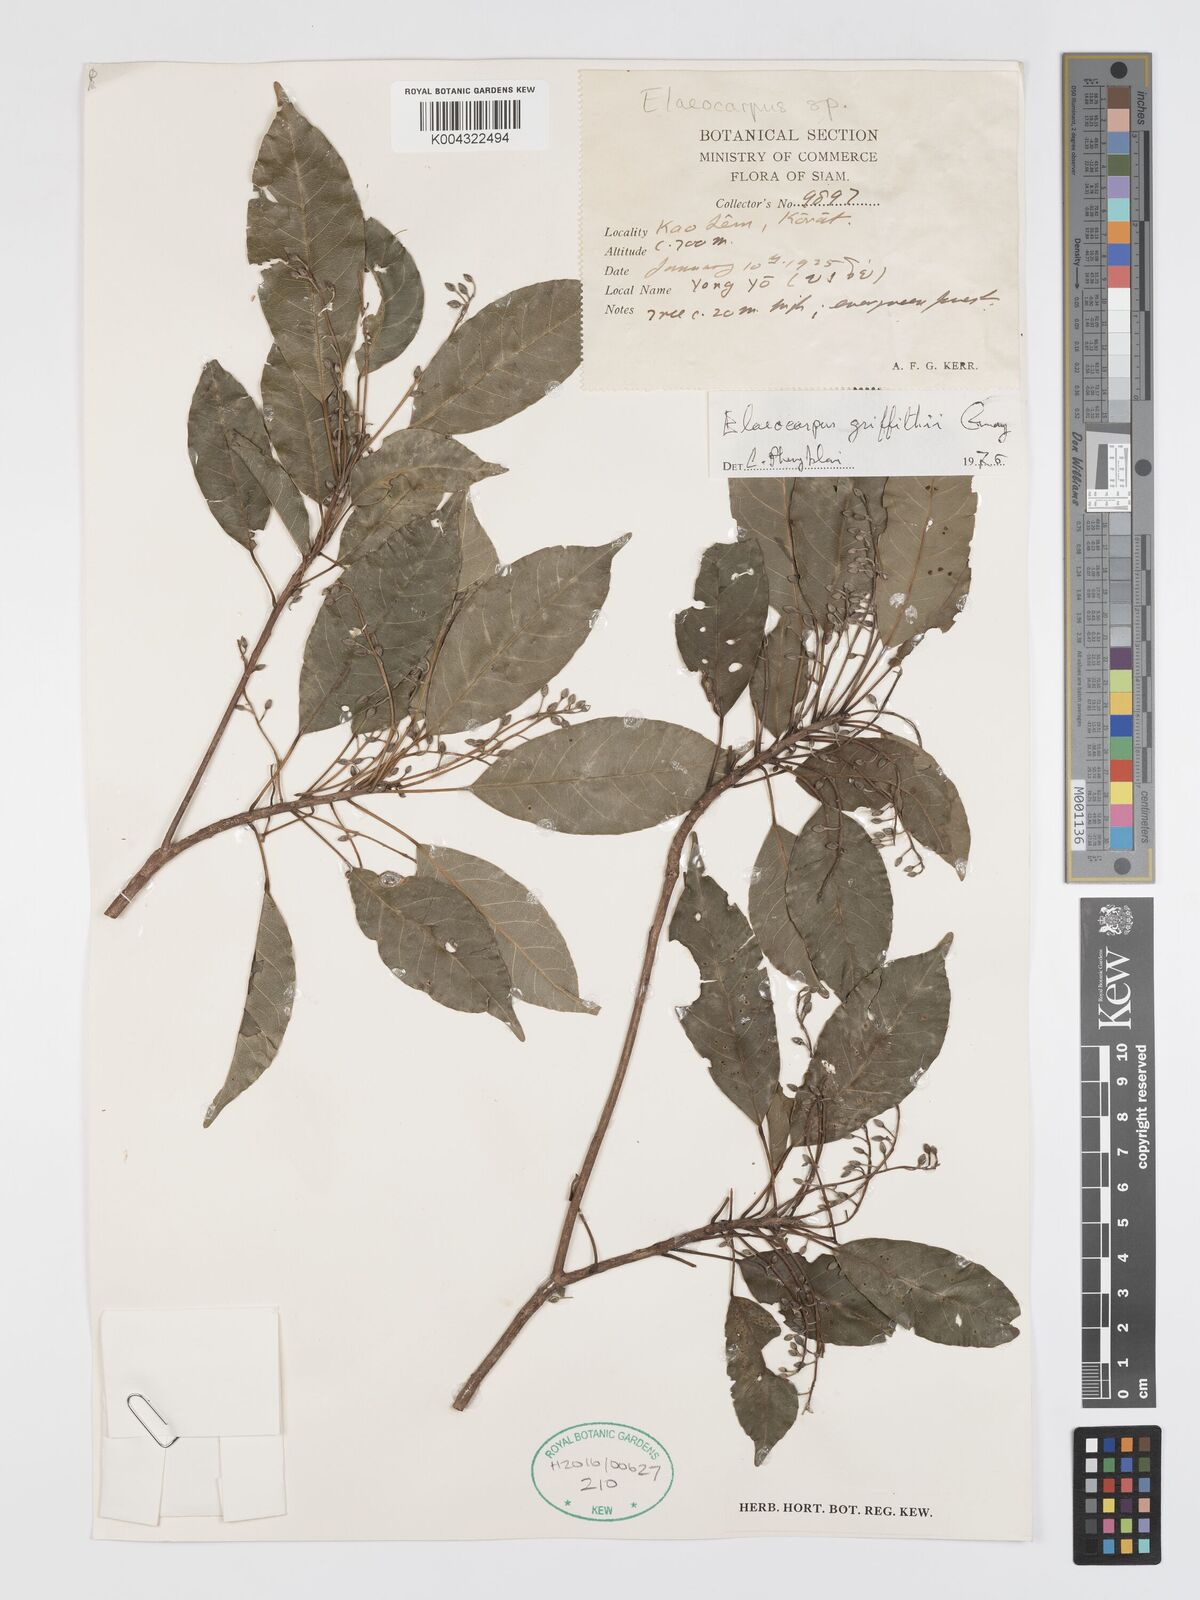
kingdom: Plantae
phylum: Tracheophyta
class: Magnoliopsida
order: Oxalidales
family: Elaeocarpaceae
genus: Elaeocarpus
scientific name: Elaeocarpus griffithii
